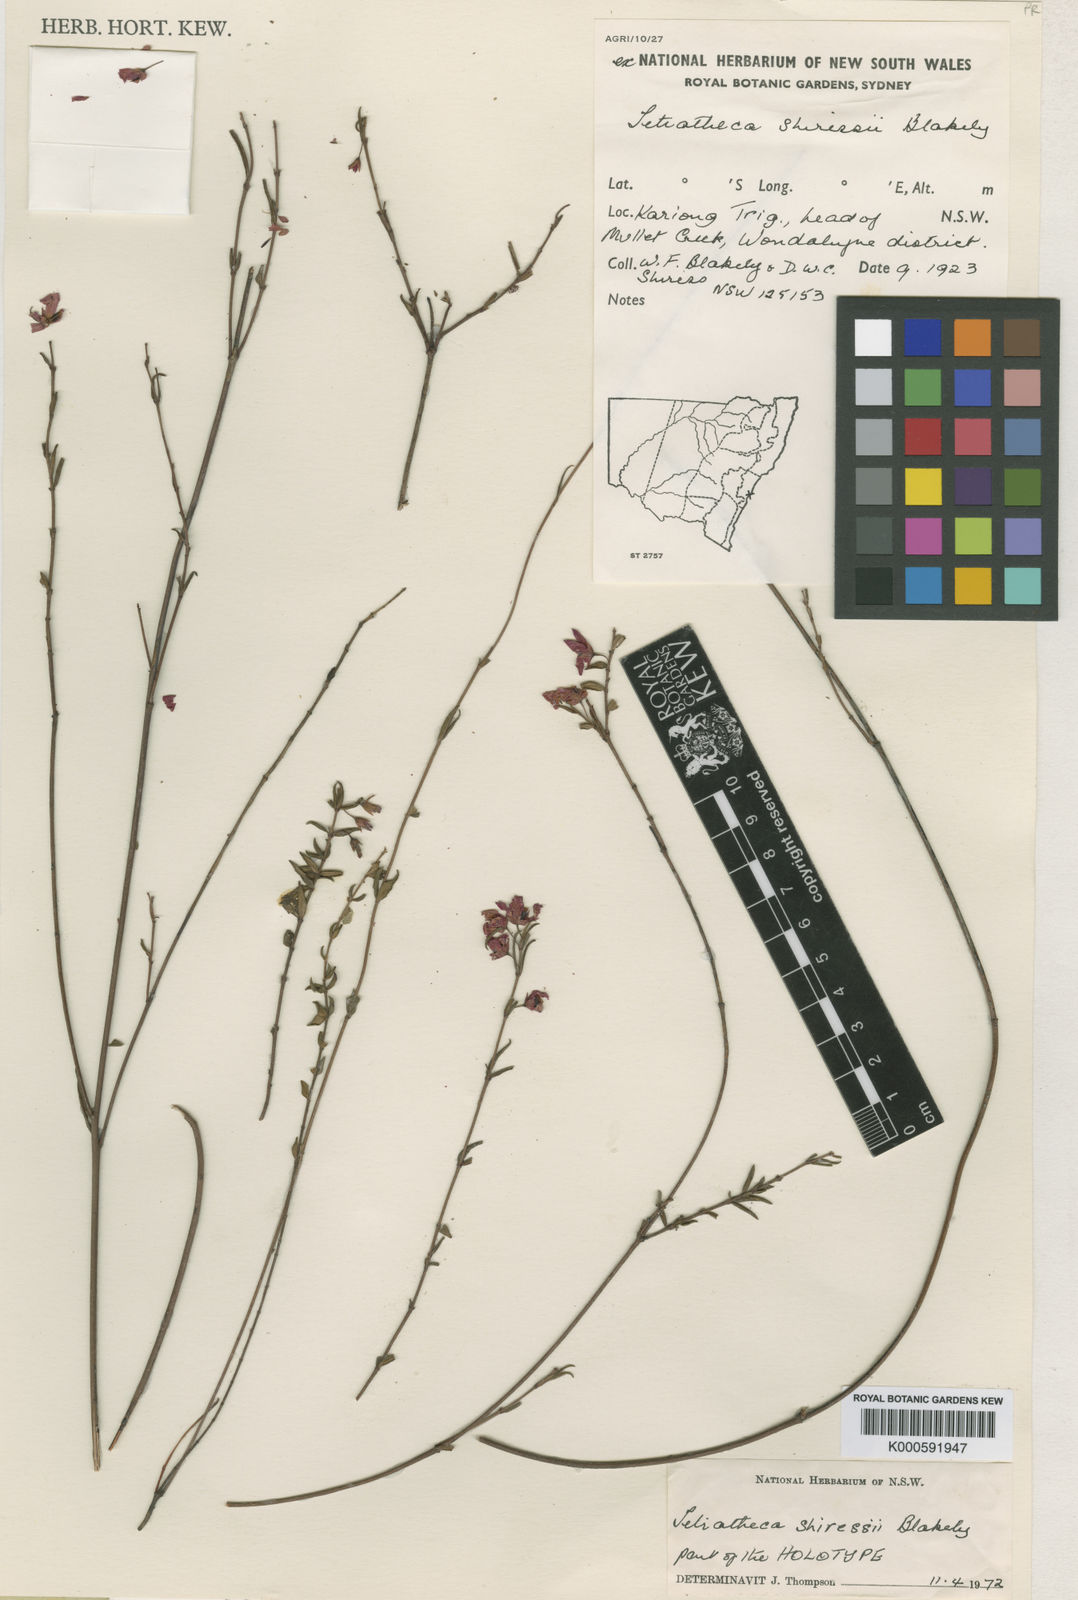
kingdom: Plantae
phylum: Tracheophyta
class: Magnoliopsida
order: Oxalidales
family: Elaeocarpaceae
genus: Tetratheca
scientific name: Tetratheca shiressii
